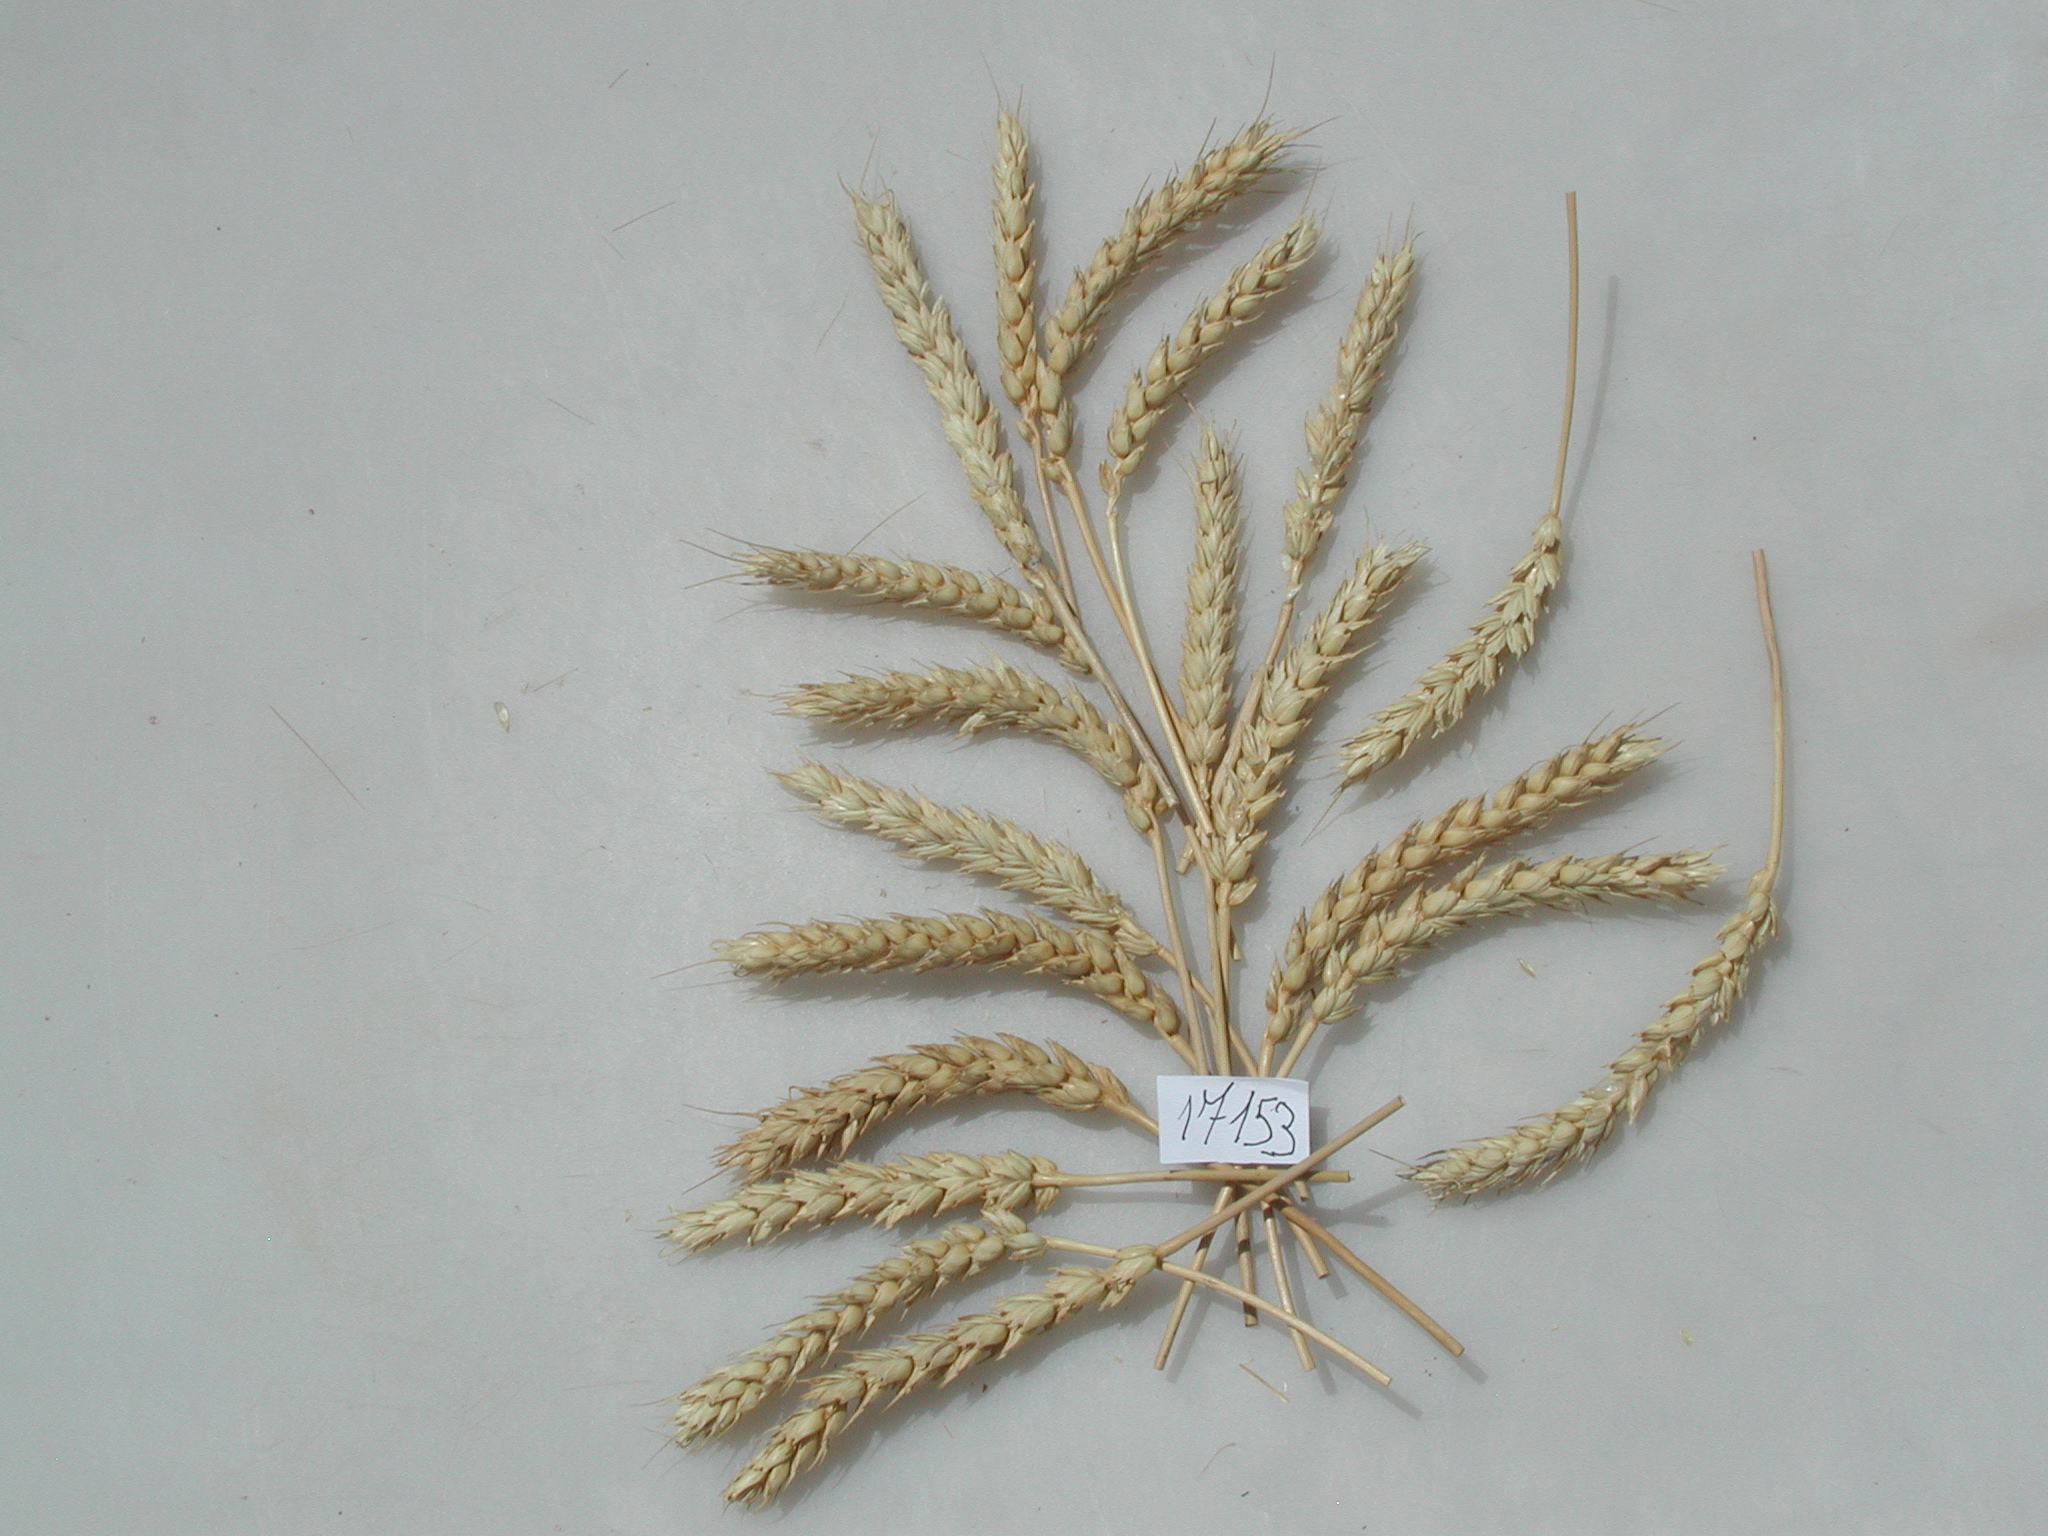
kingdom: Plantae
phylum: Tracheophyta
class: Liliopsida
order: Poales
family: Poaceae
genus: Triticum
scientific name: Triticum
